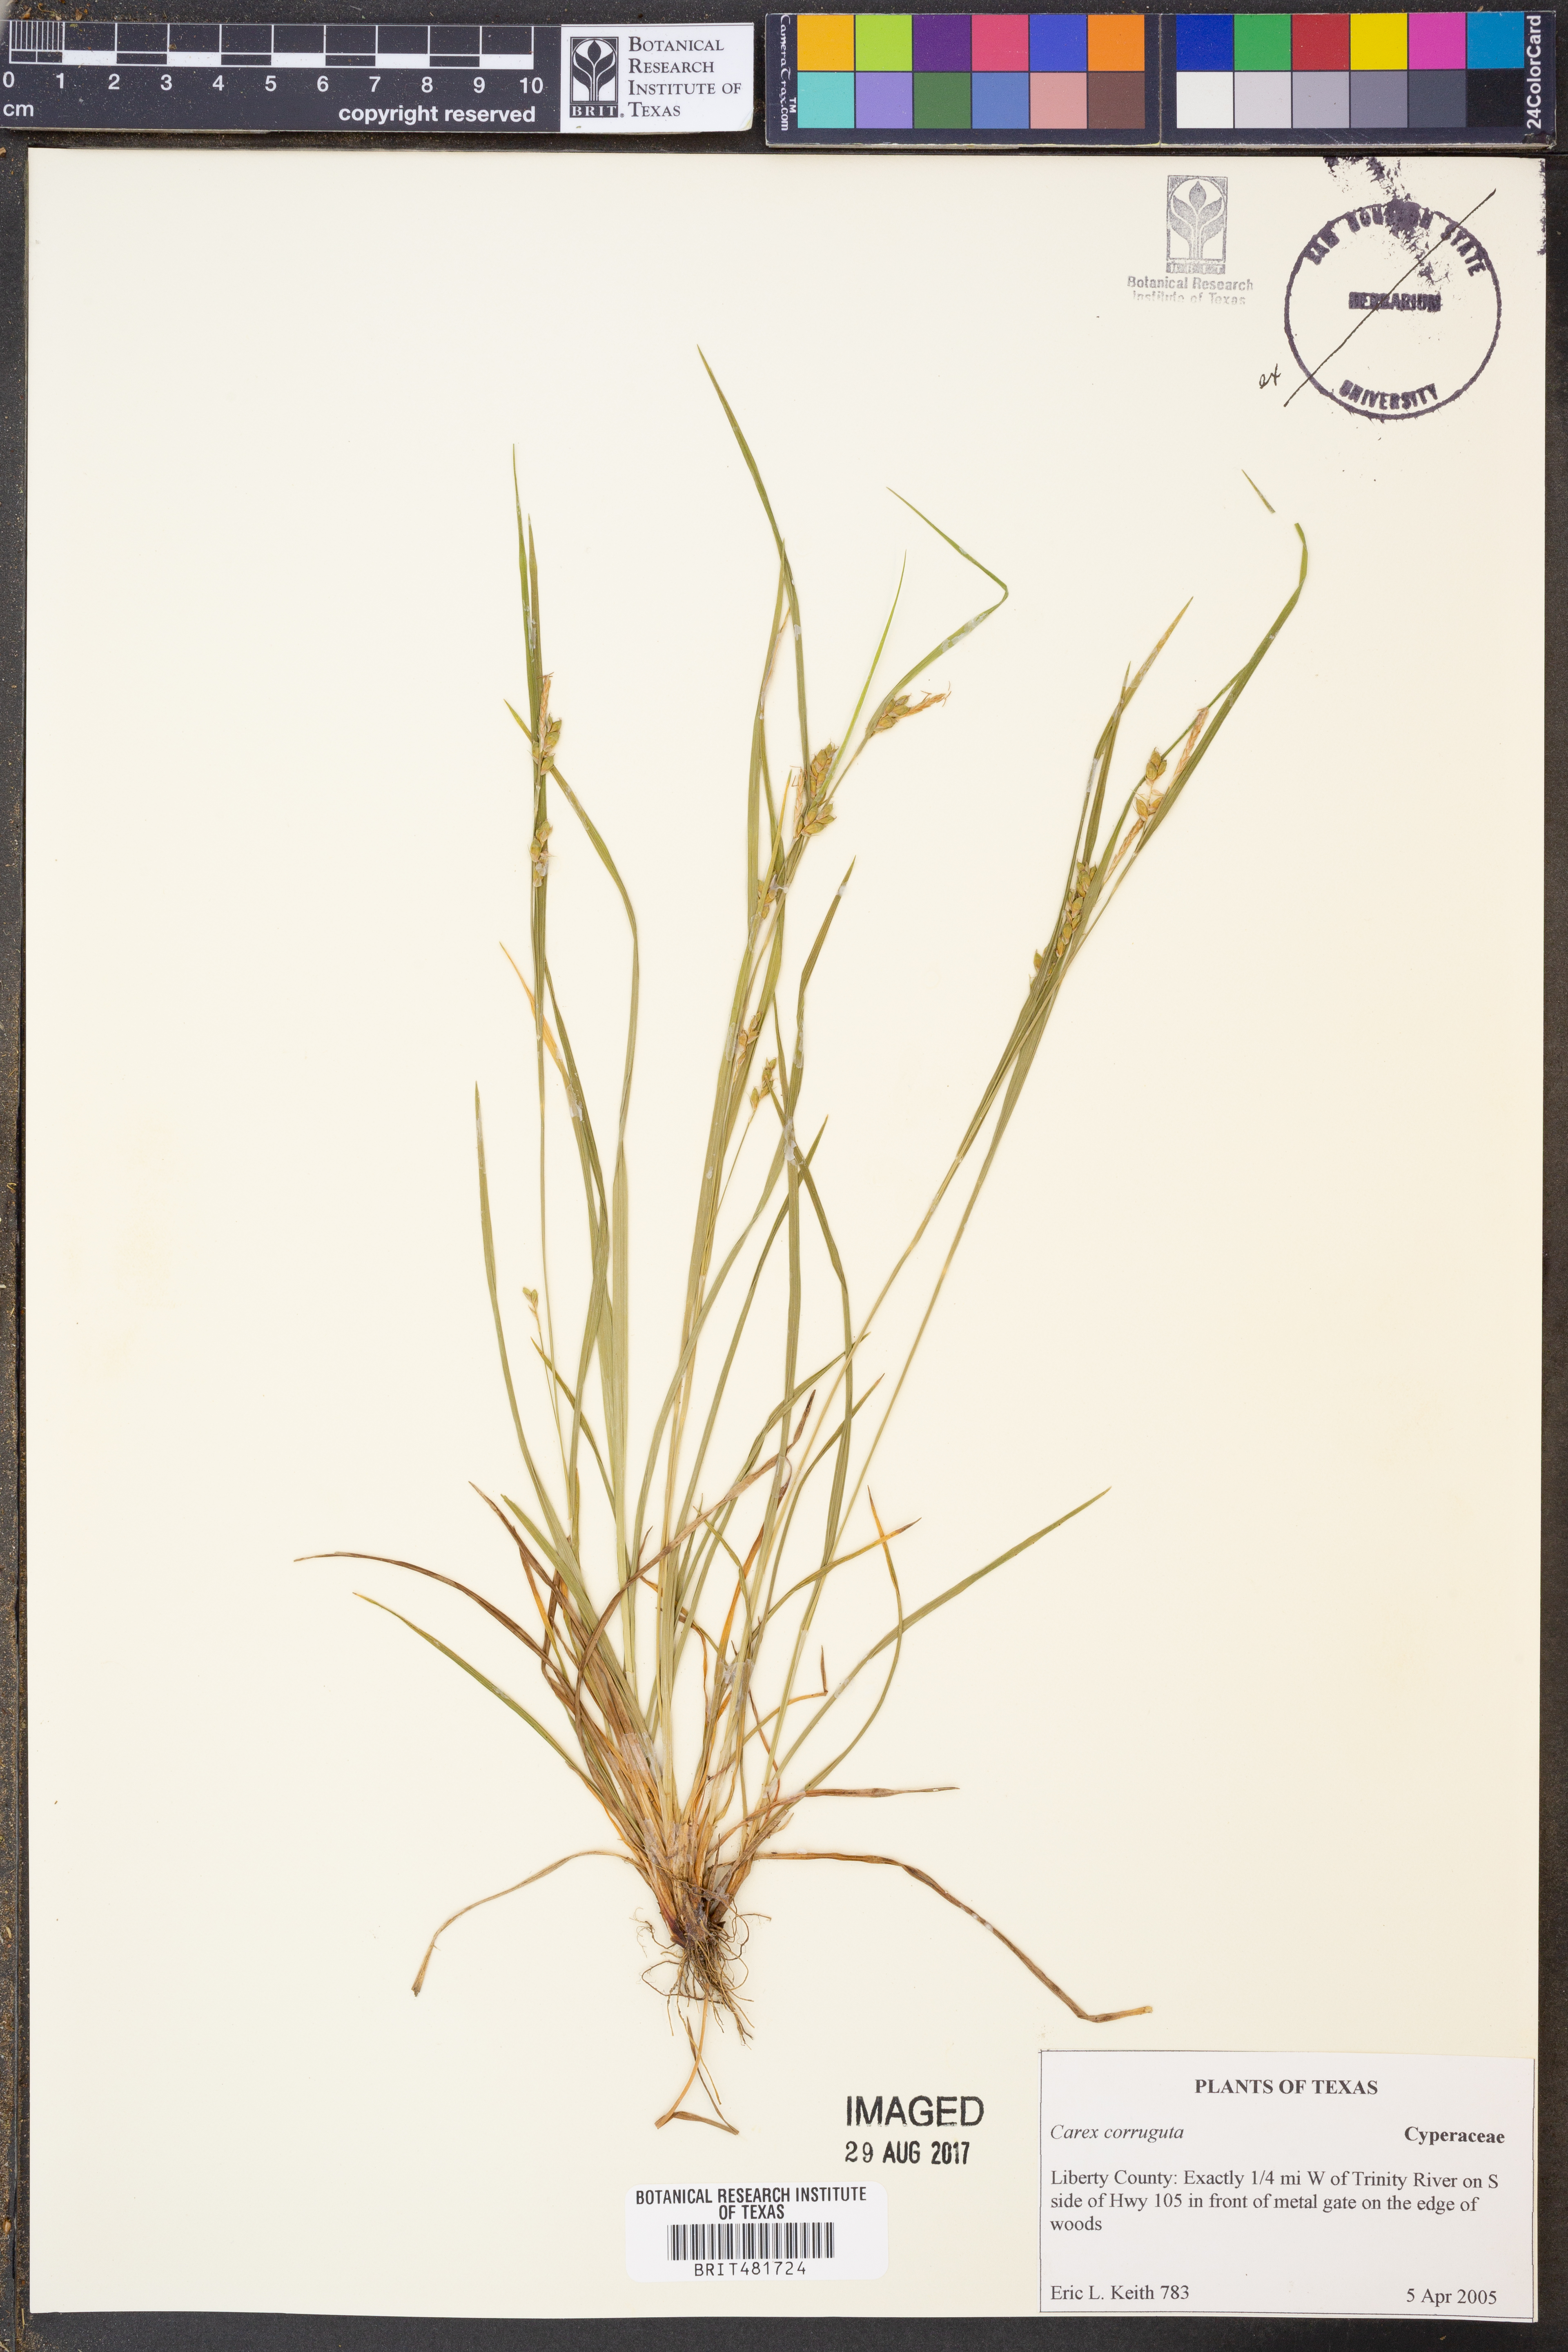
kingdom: Plantae
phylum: Tracheophyta
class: Liliopsida
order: Poales
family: Cyperaceae
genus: Carex
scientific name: Carex corrugata
